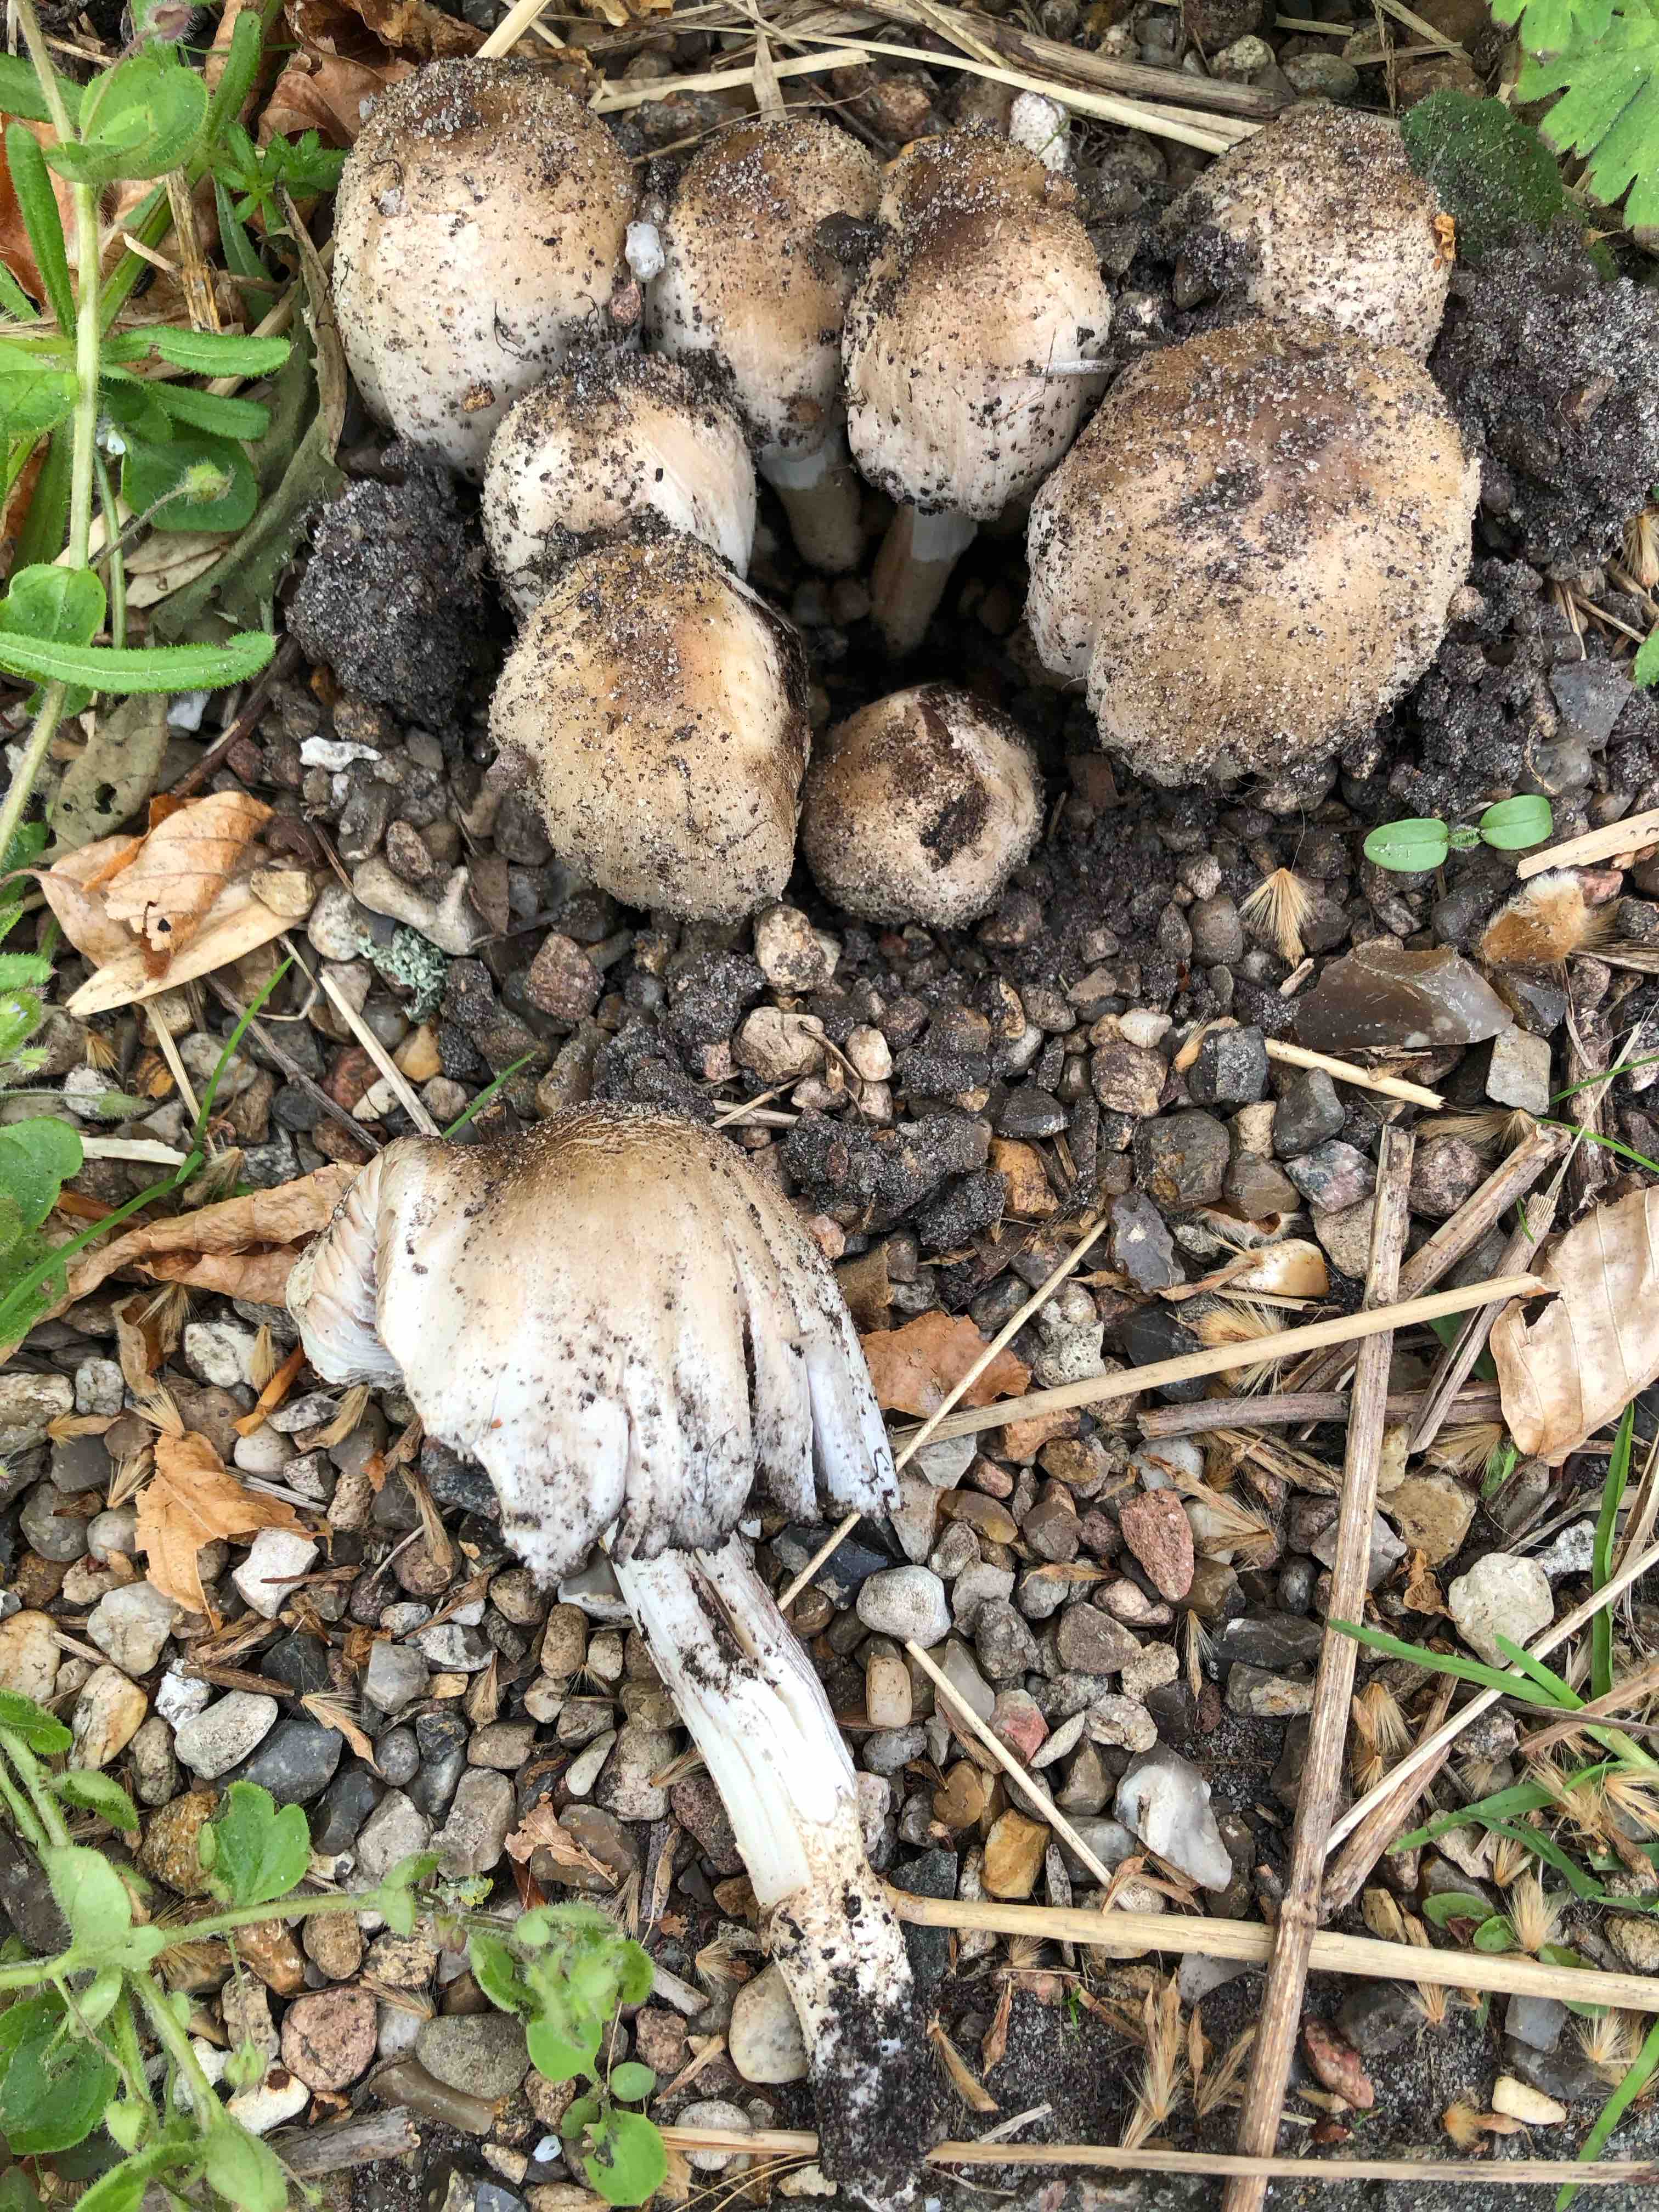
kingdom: Fungi
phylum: Basidiomycota
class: Agaricomycetes
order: Agaricales
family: Psathyrellaceae
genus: Coprinopsis
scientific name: Coprinopsis romagnesiana
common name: brunskællet blækhat
